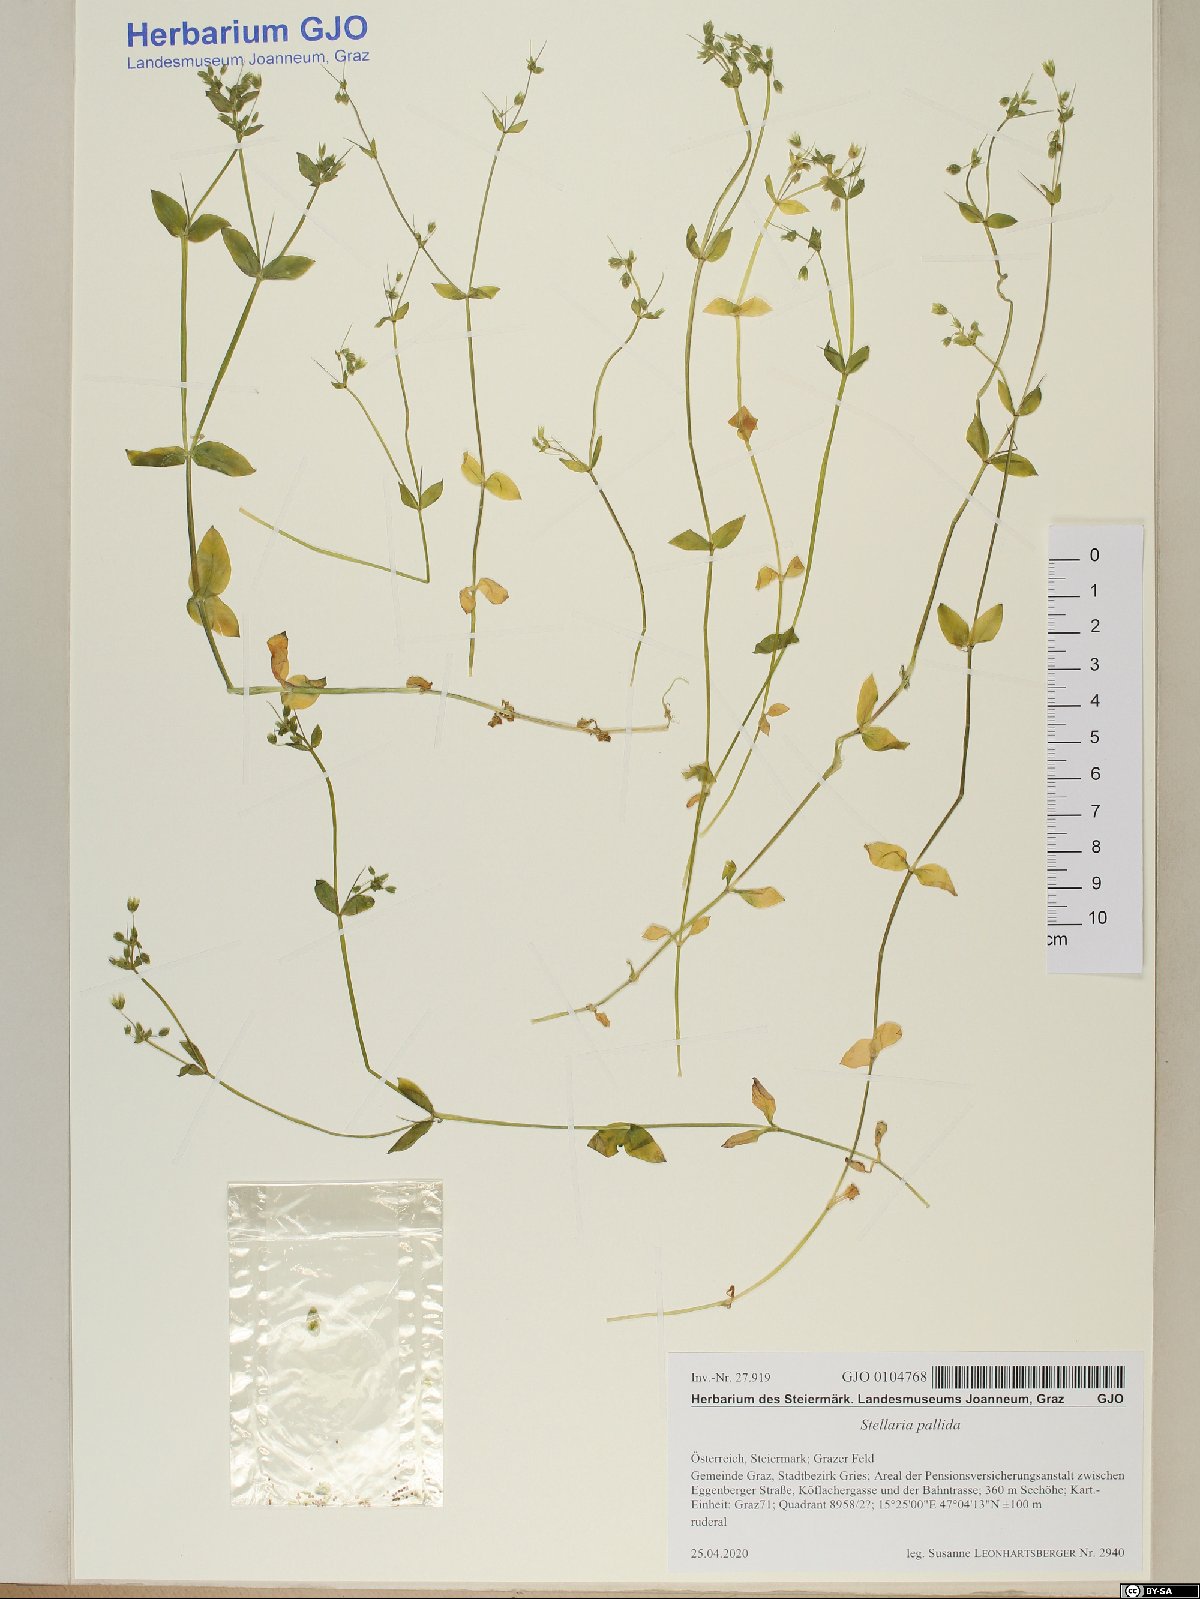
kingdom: Plantae
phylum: Tracheophyta
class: Magnoliopsida
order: Caryophyllales
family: Caryophyllaceae
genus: Stellaria
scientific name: Stellaria apetala
